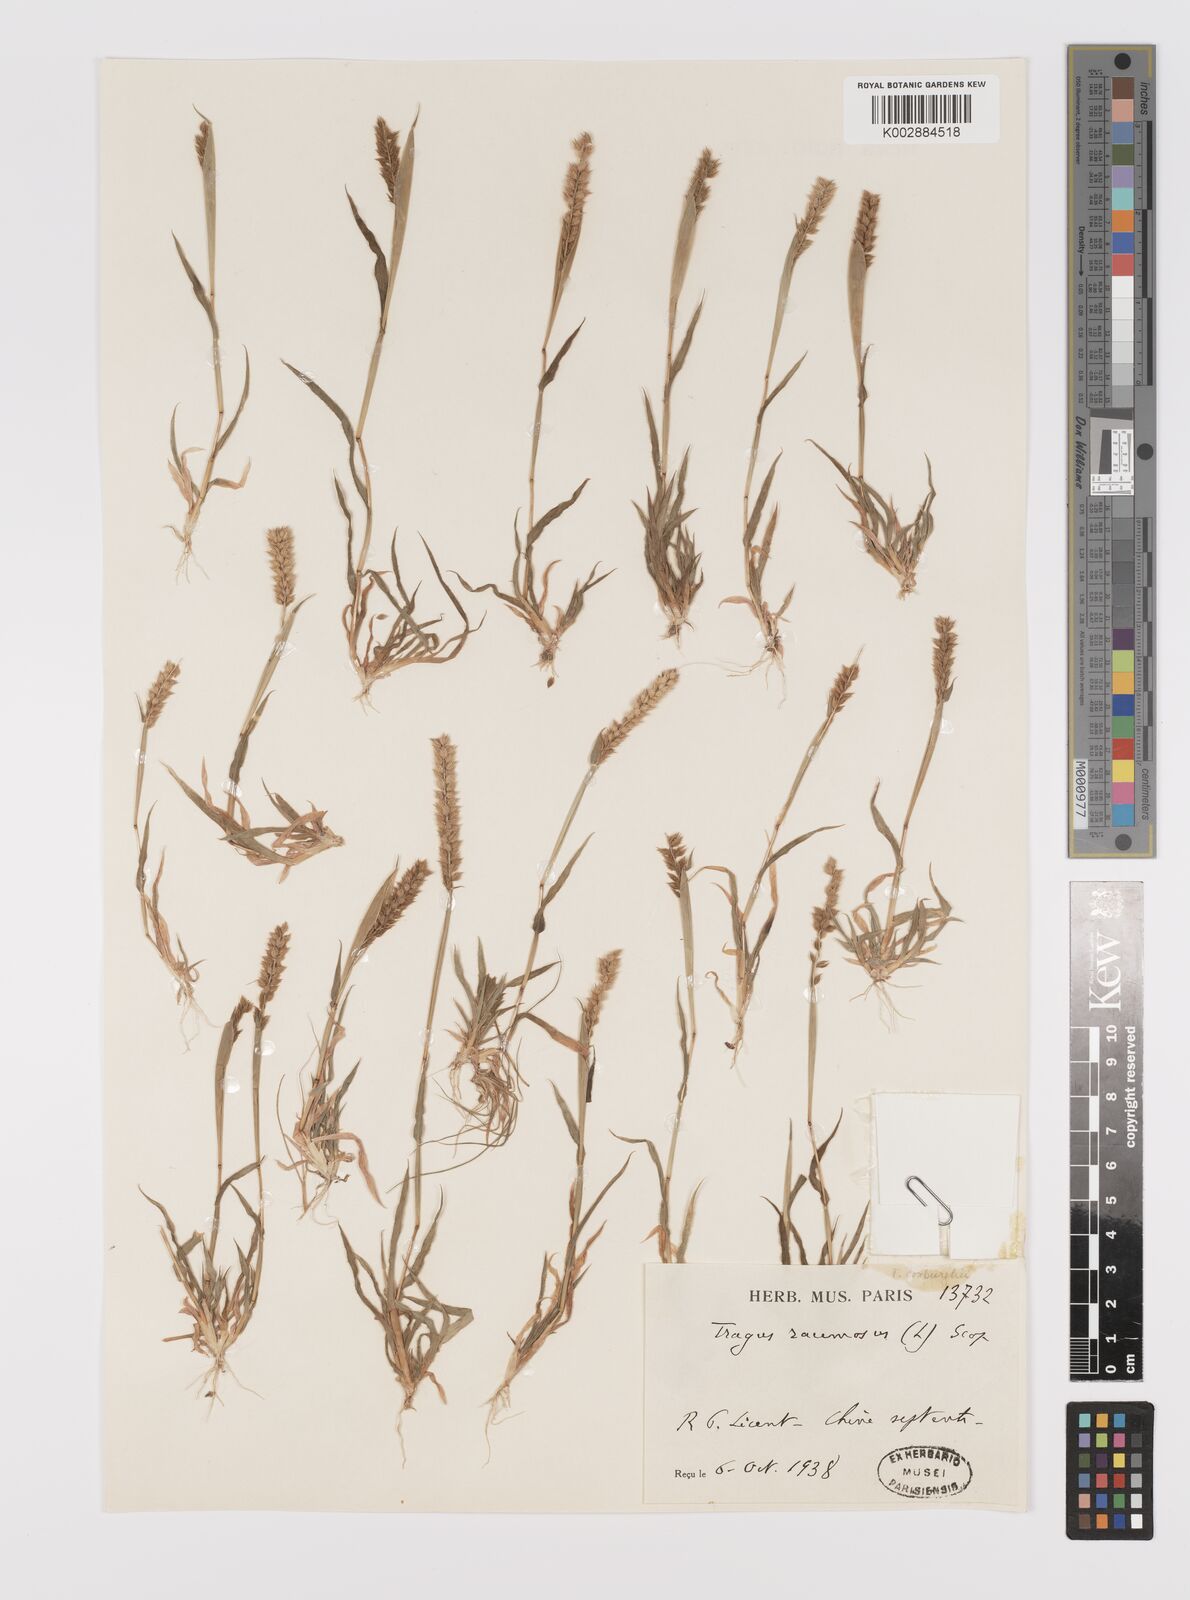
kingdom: Plantae
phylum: Tracheophyta
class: Liliopsida
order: Poales
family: Poaceae
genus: Tragus
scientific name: Tragus mongolorum
